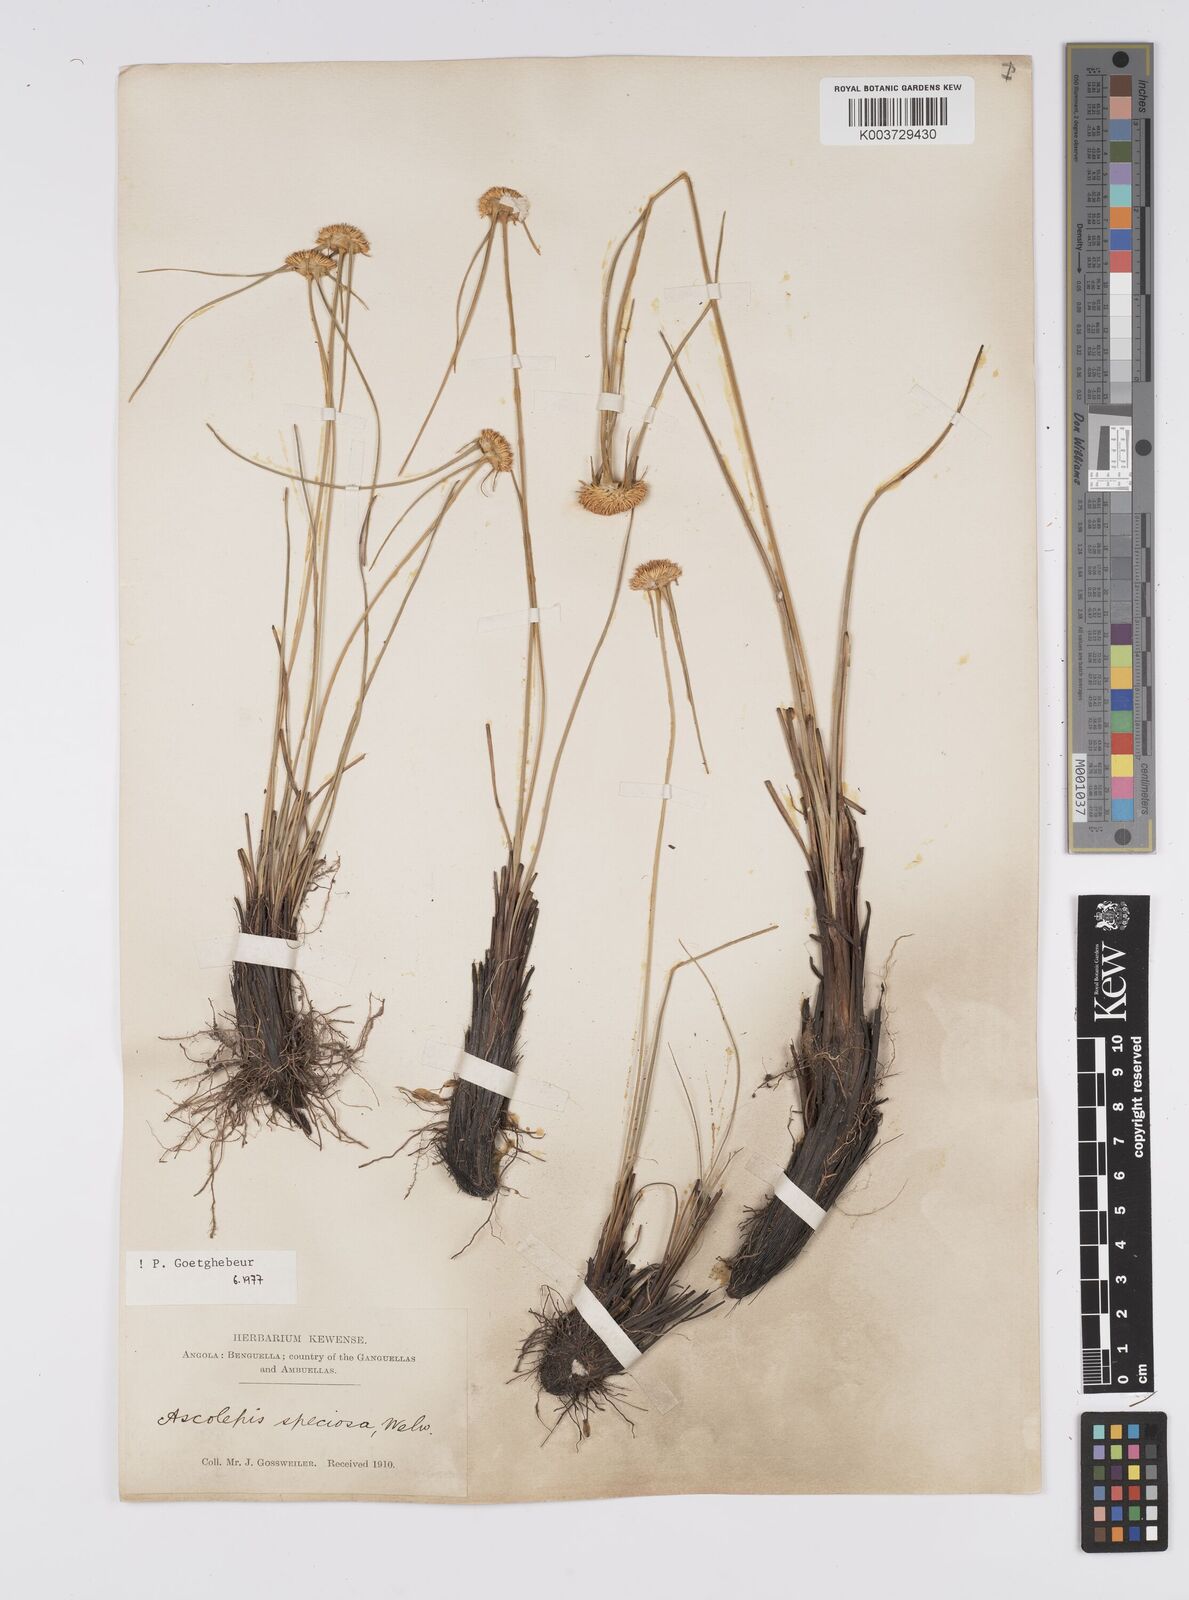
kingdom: Plantae
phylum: Tracheophyta
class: Liliopsida
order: Poales
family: Cyperaceae
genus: Cyperus
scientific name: Cyperus
